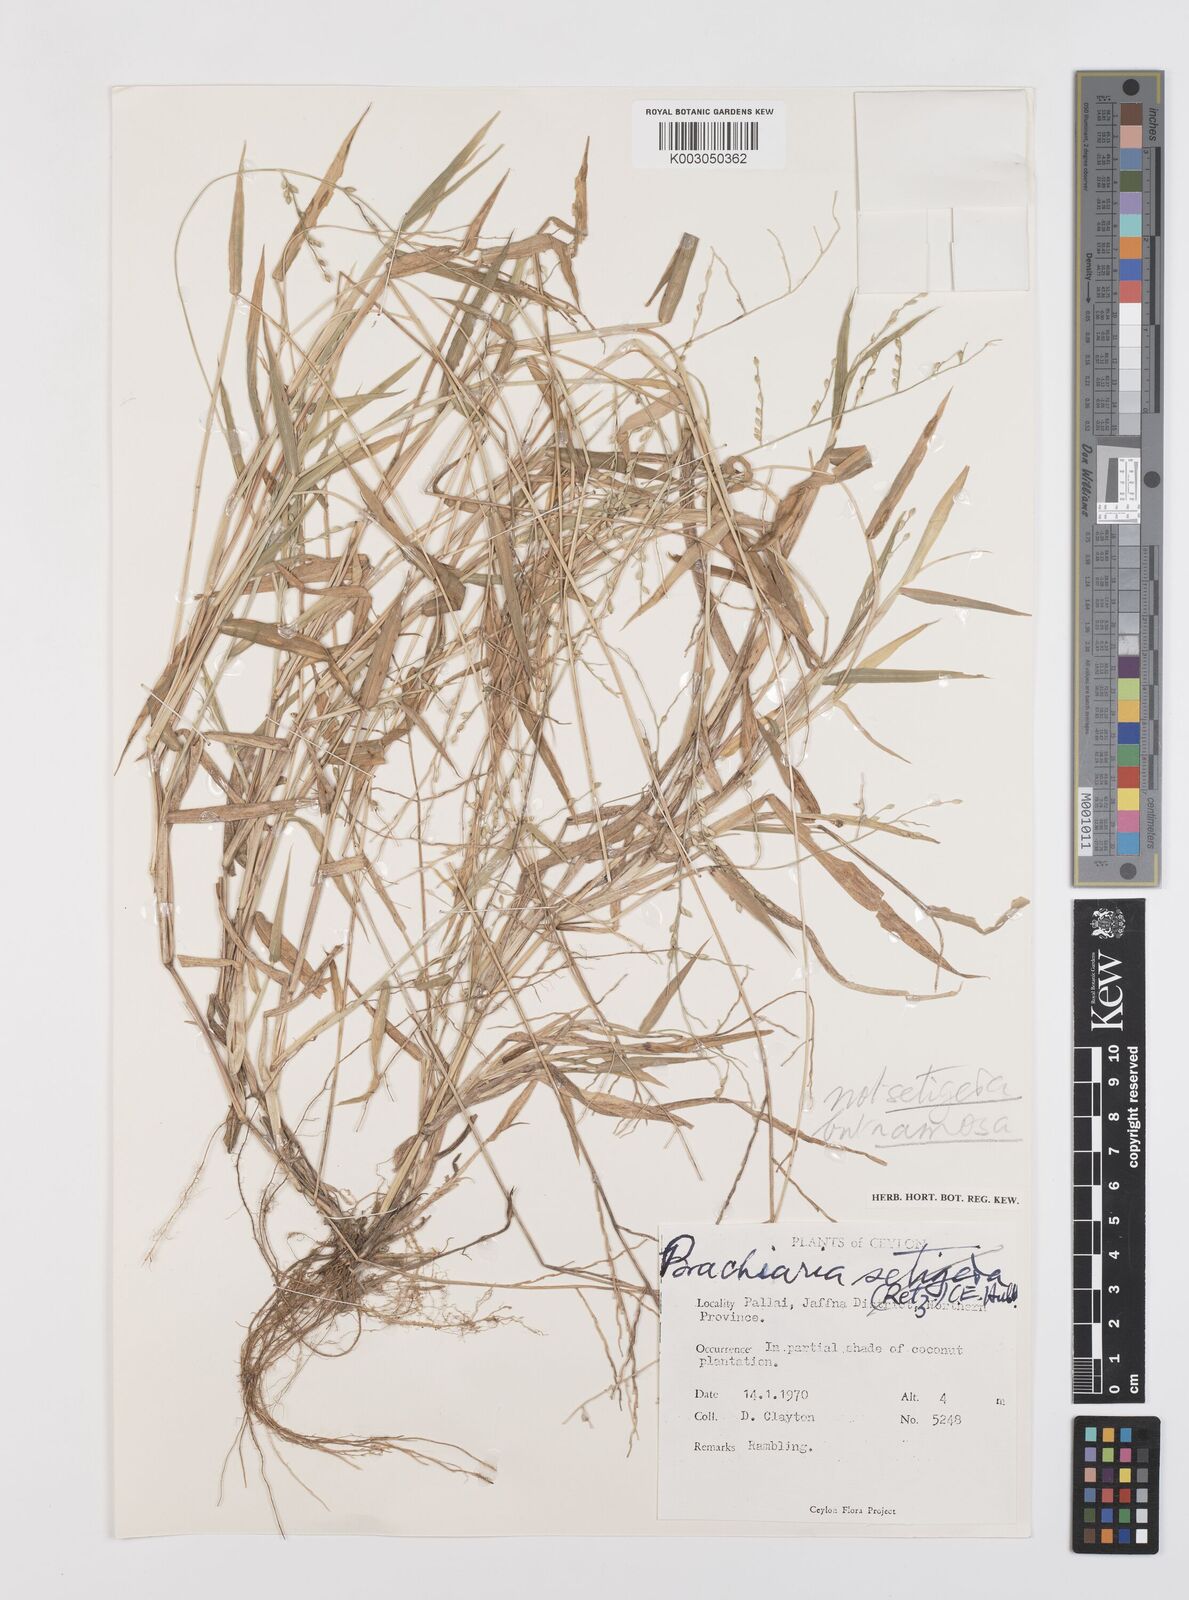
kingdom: Plantae
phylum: Tracheophyta
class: Liliopsida
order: Poales
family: Poaceae
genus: Urochloa
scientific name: Urochloa ramosa
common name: Browntop millet
